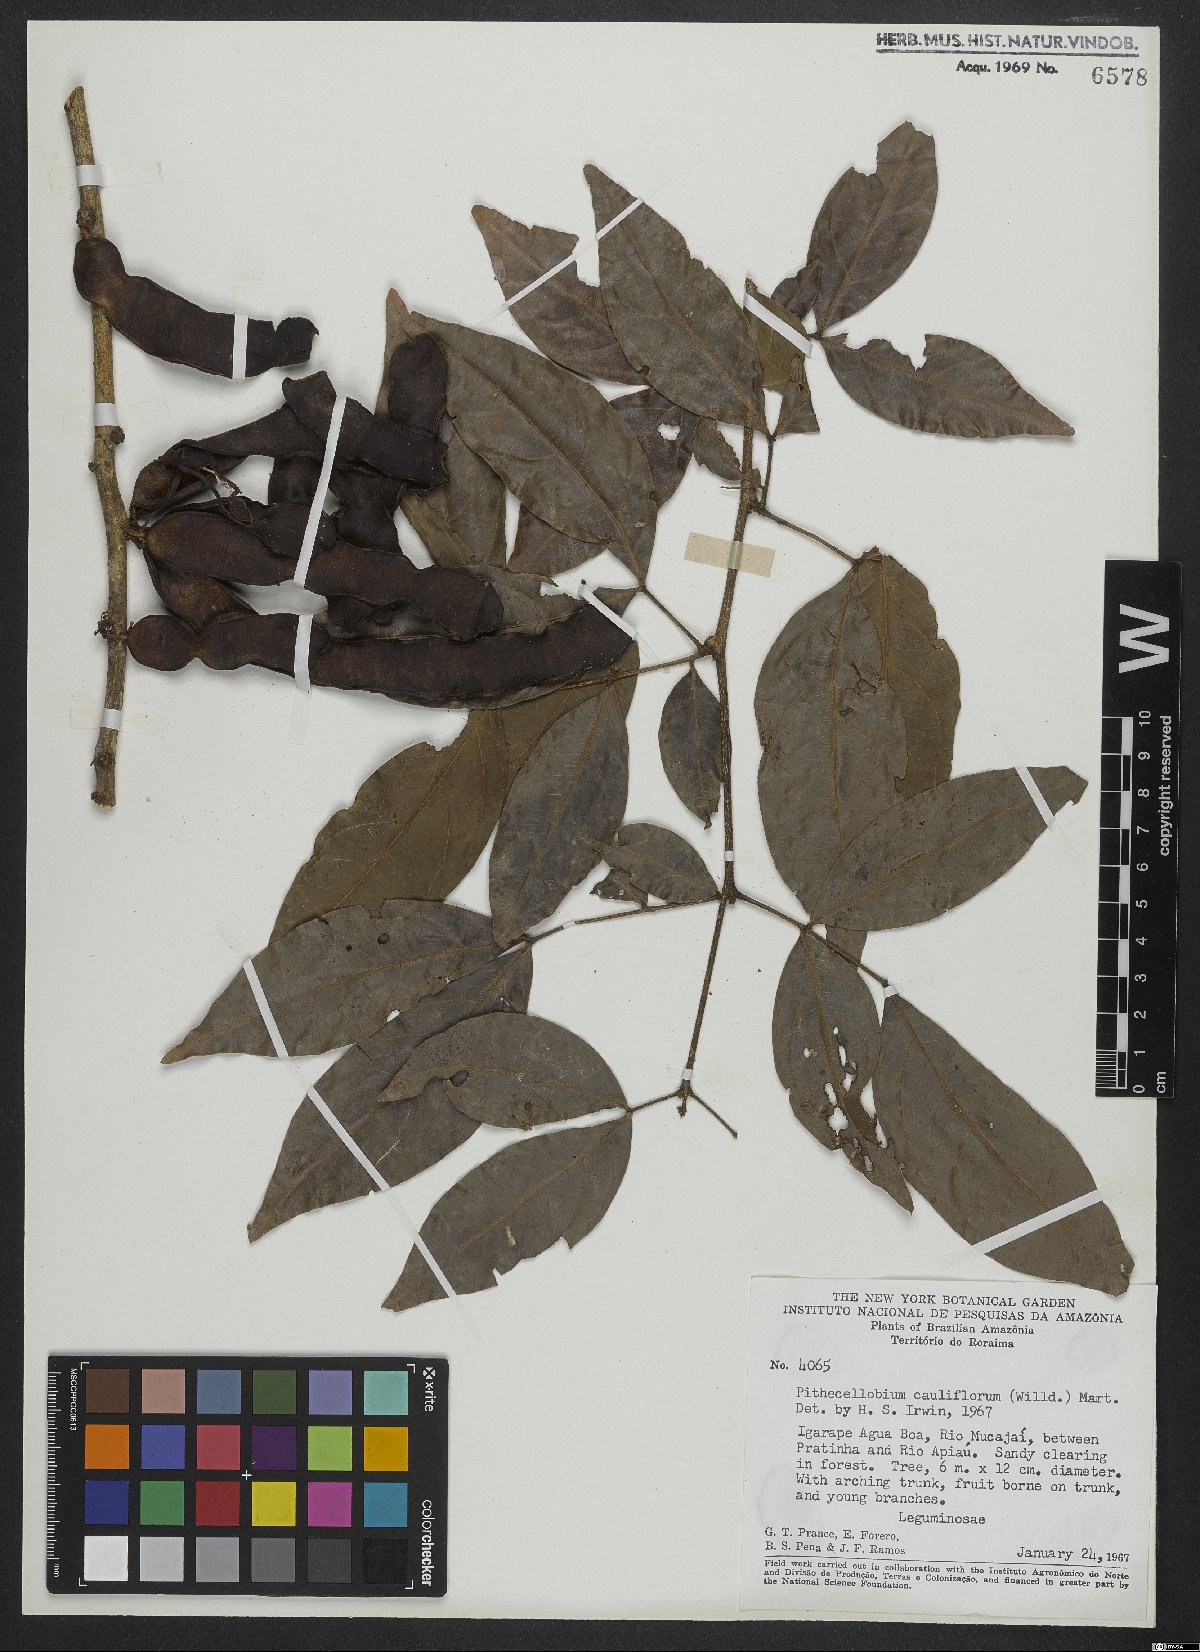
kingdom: Plantae
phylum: Tracheophyta
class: Magnoliopsida
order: Fabales
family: Fabaceae
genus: Zygia
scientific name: Zygia cauliflora
